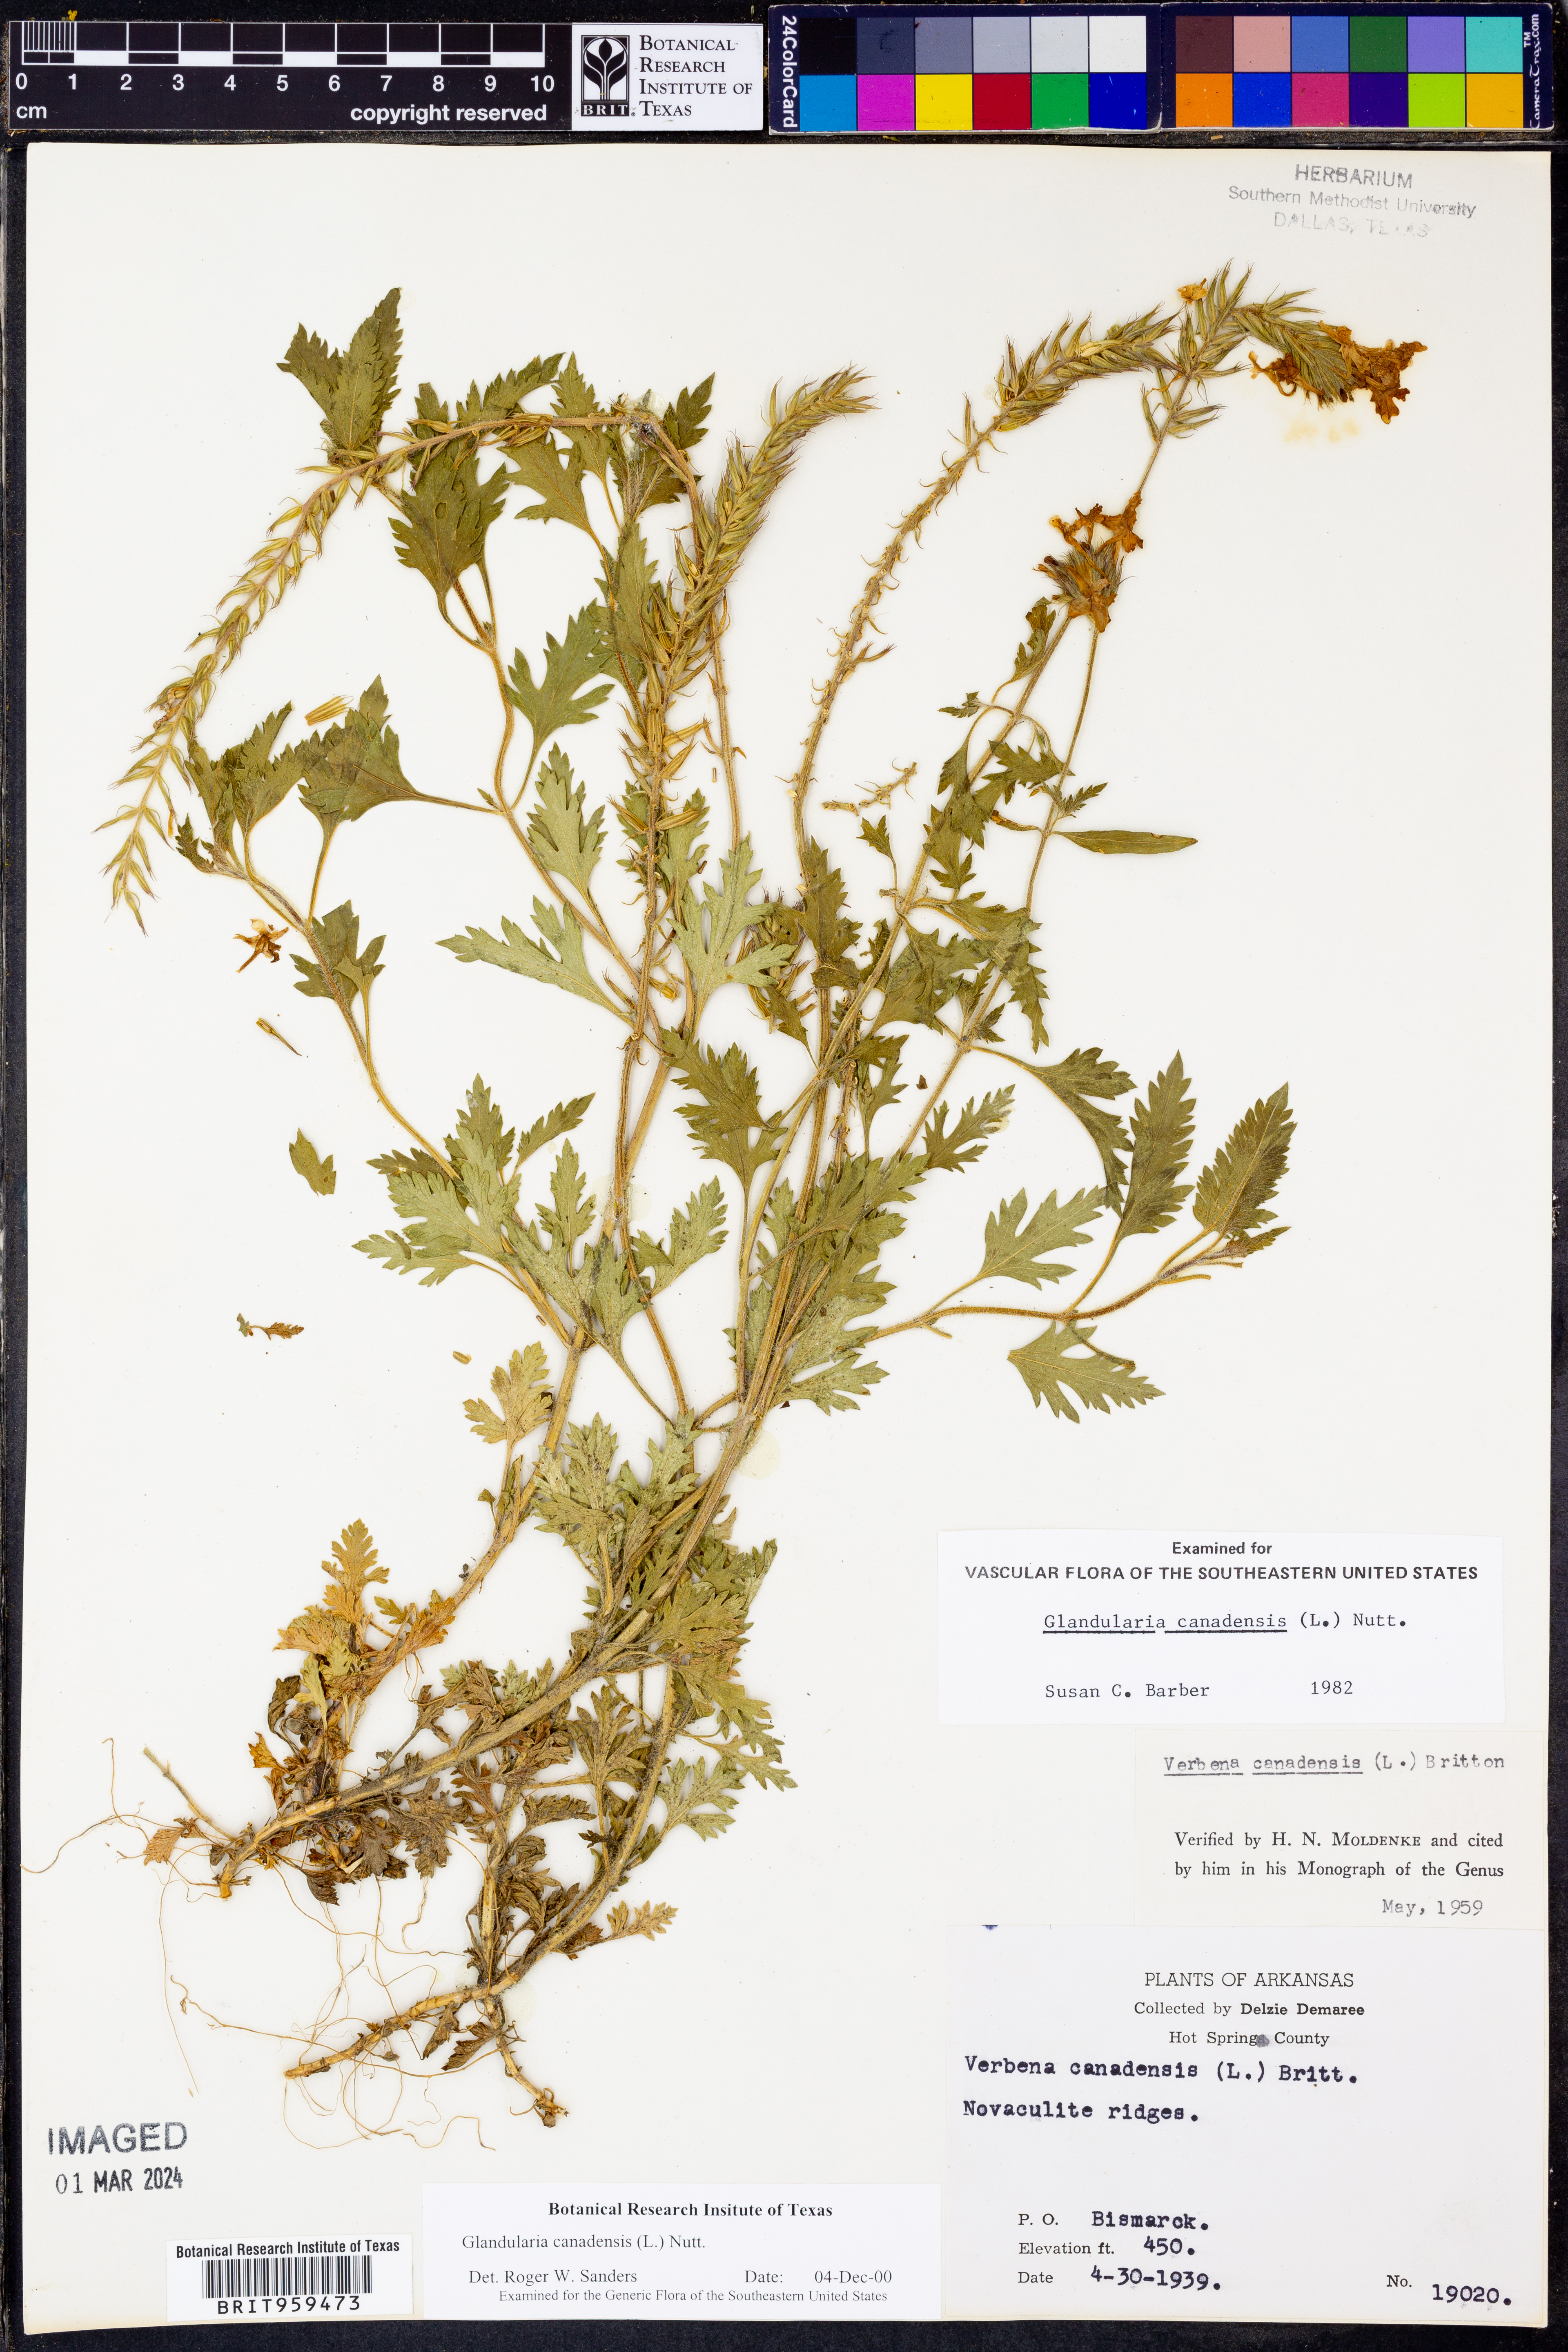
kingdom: Plantae
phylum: Tracheophyta
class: Magnoliopsida
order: Lamiales
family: Verbenaceae
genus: Verbena
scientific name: Verbena canadensis
